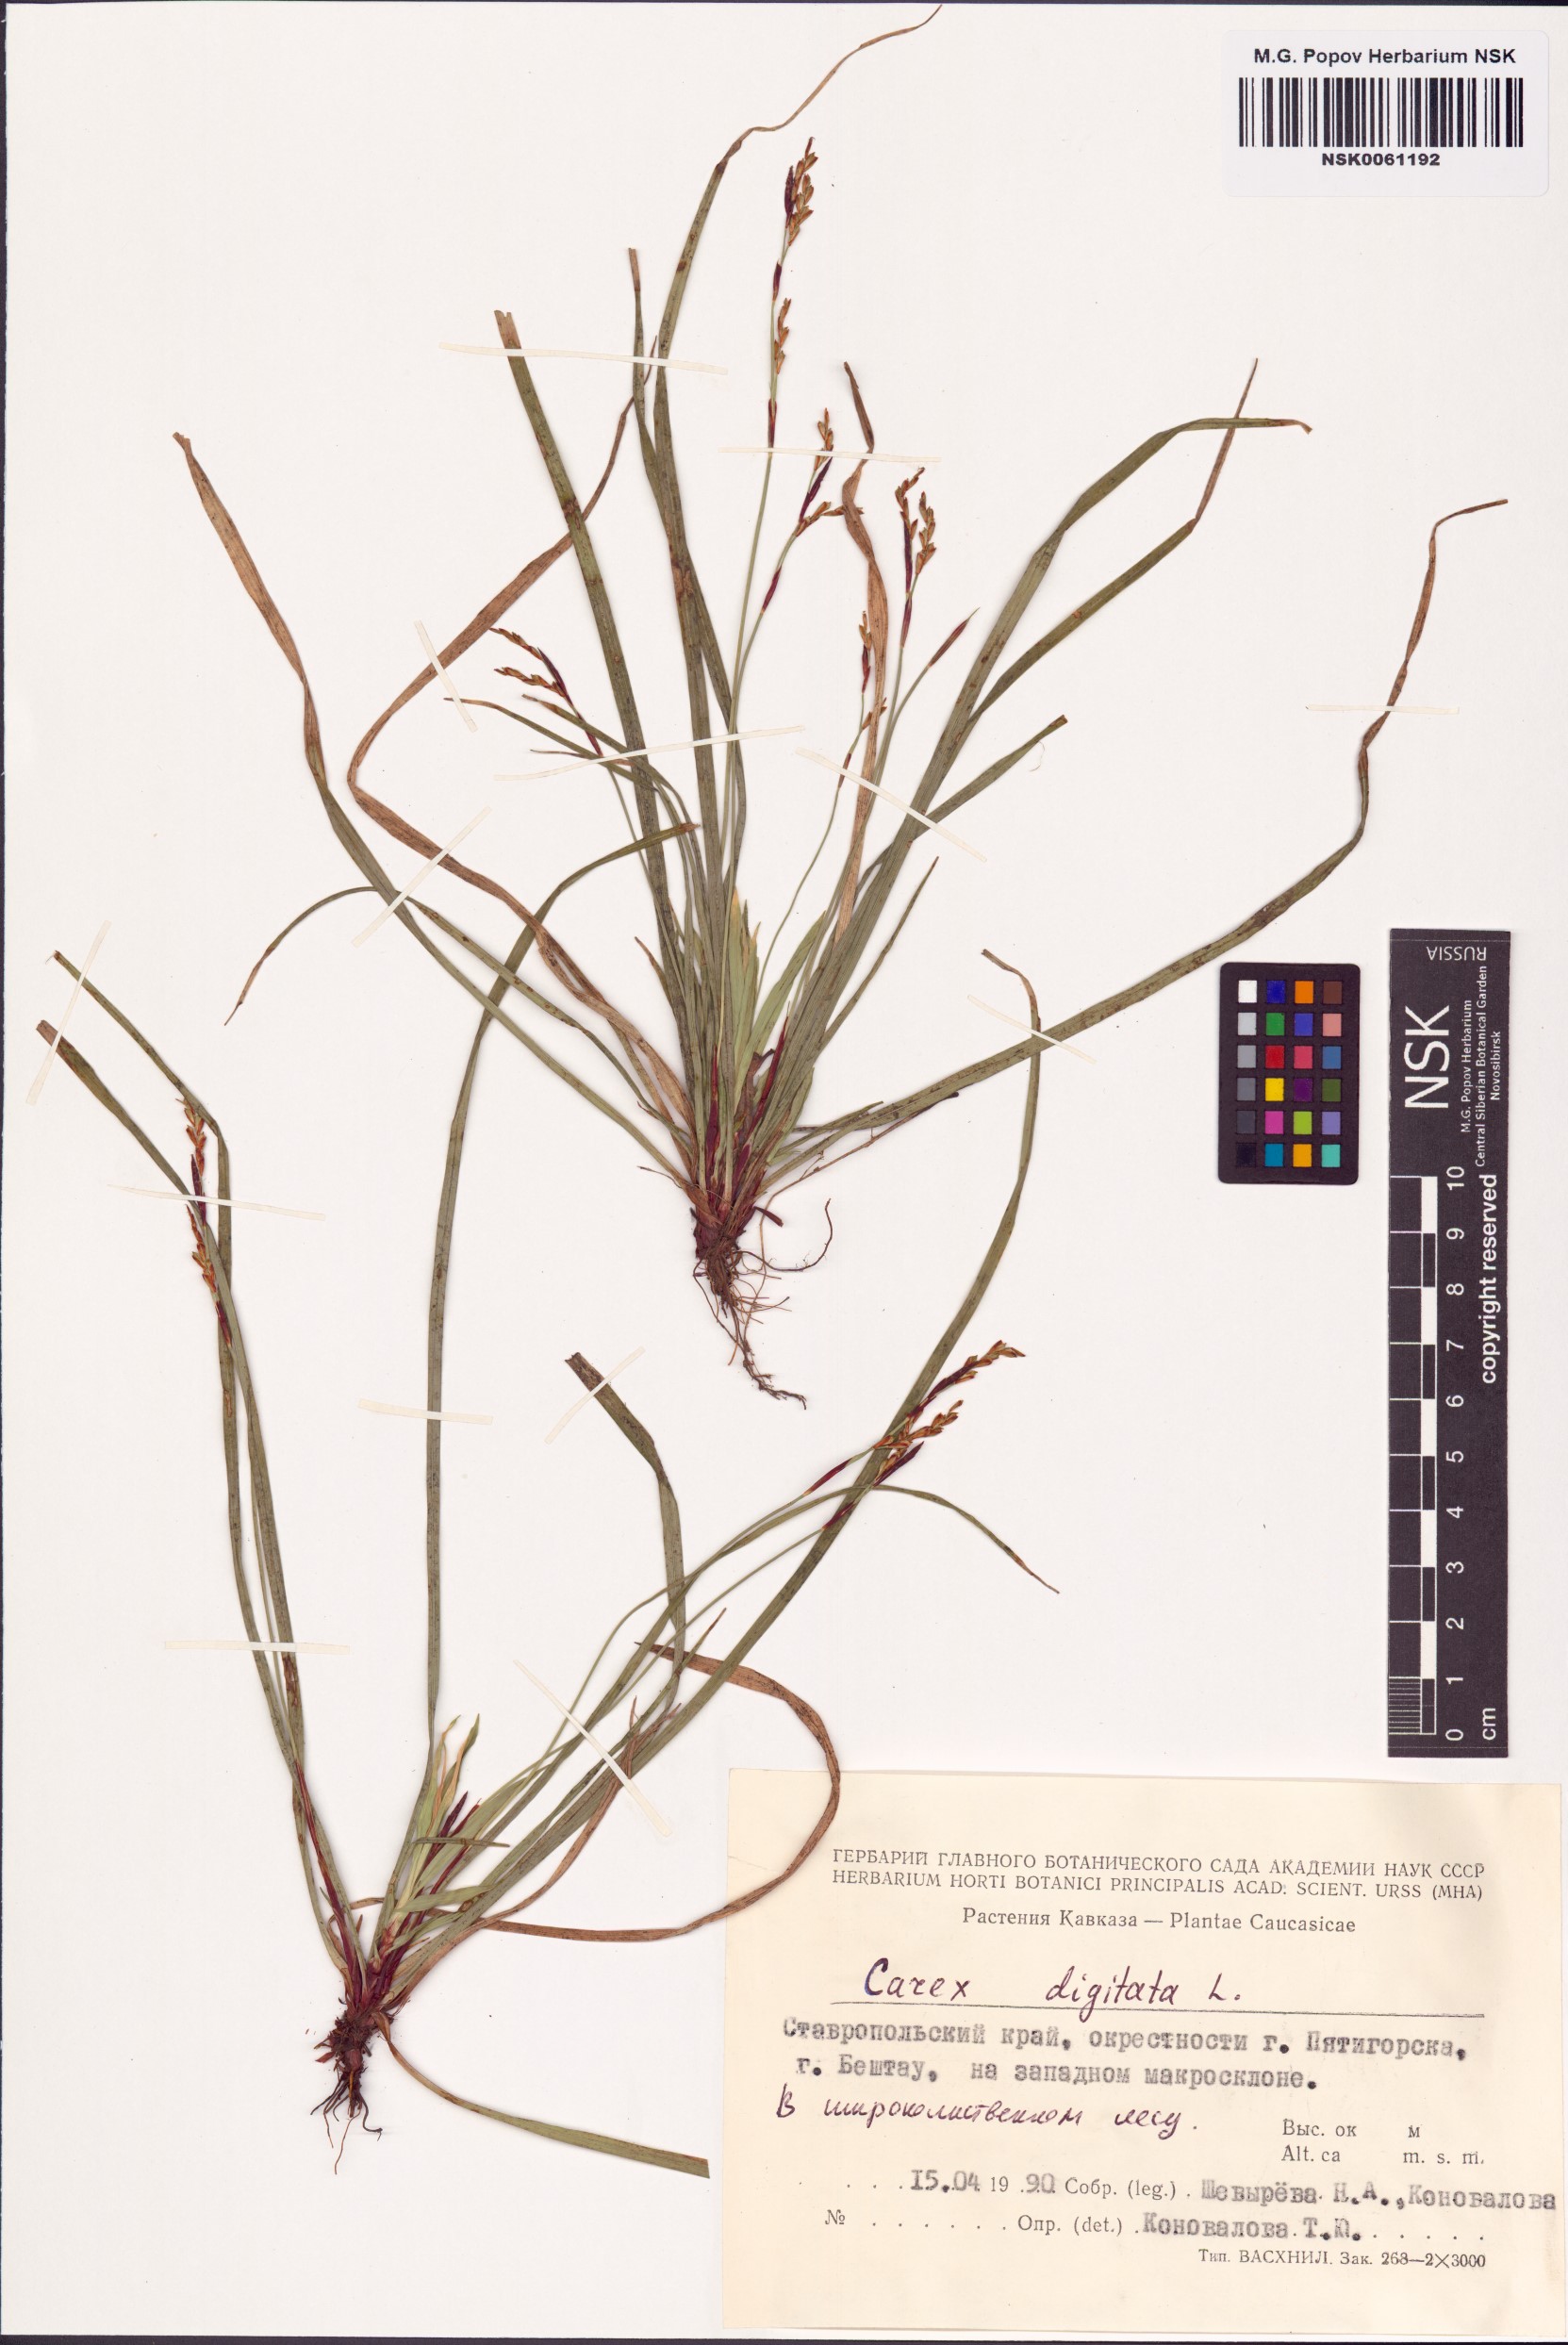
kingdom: Plantae
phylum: Tracheophyta
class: Liliopsida
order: Poales
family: Cyperaceae
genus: Carex
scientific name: Carex digitata
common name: Fingered sedge
